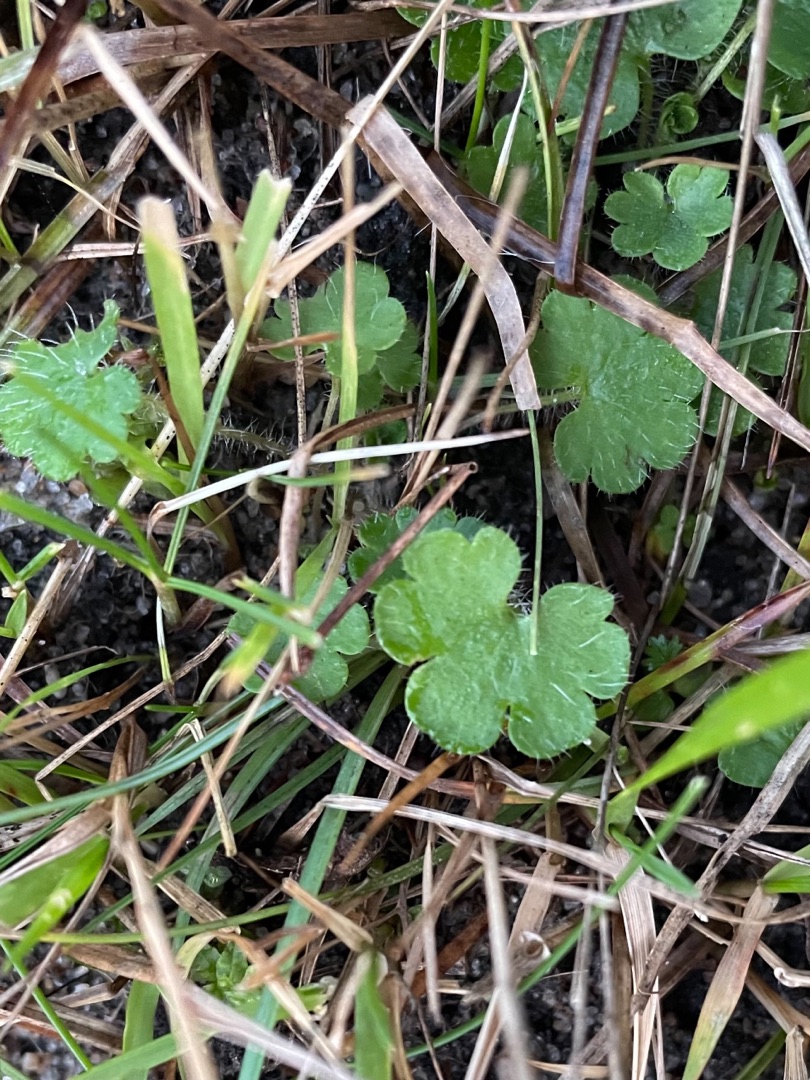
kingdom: Plantae
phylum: Tracheophyta
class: Magnoliopsida
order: Saxifragales
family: Saxifragaceae
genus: Saxifraga
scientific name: Saxifraga granulata
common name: Kornet stenbræk
